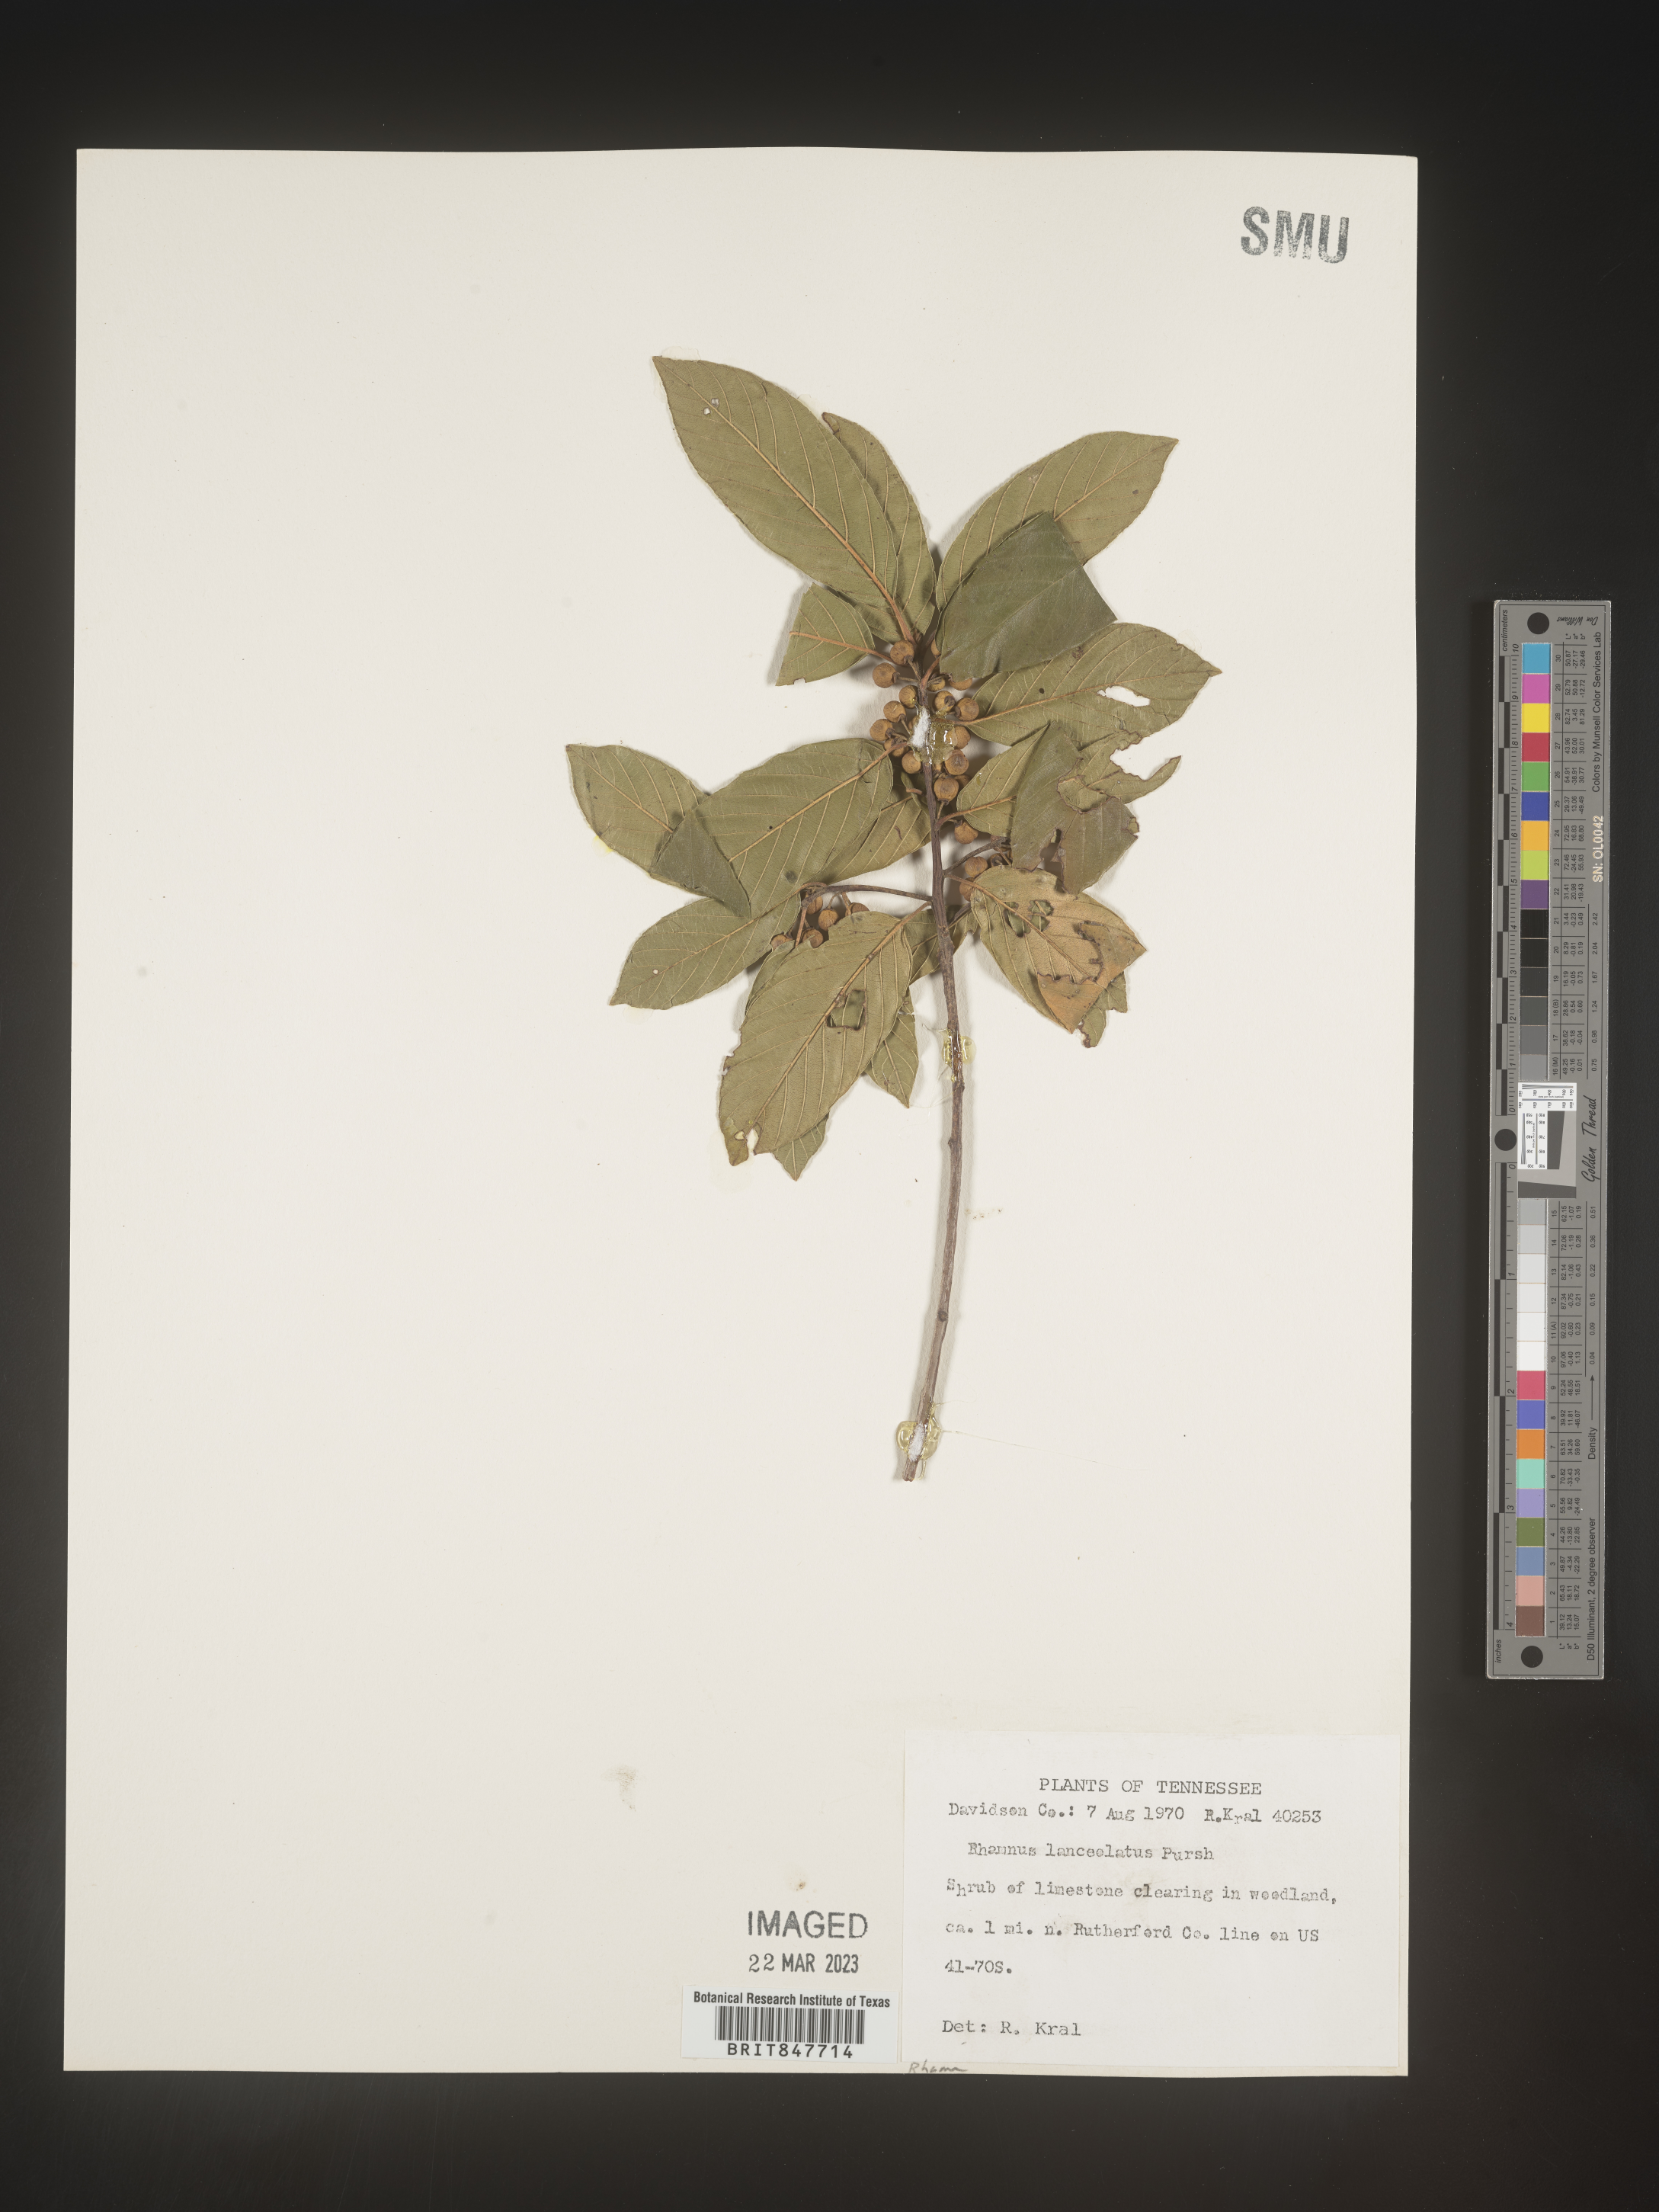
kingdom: Plantae
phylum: Tracheophyta
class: Magnoliopsida
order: Rosales
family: Rhamnaceae
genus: Endotropis
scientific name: Endotropis lanceolata
